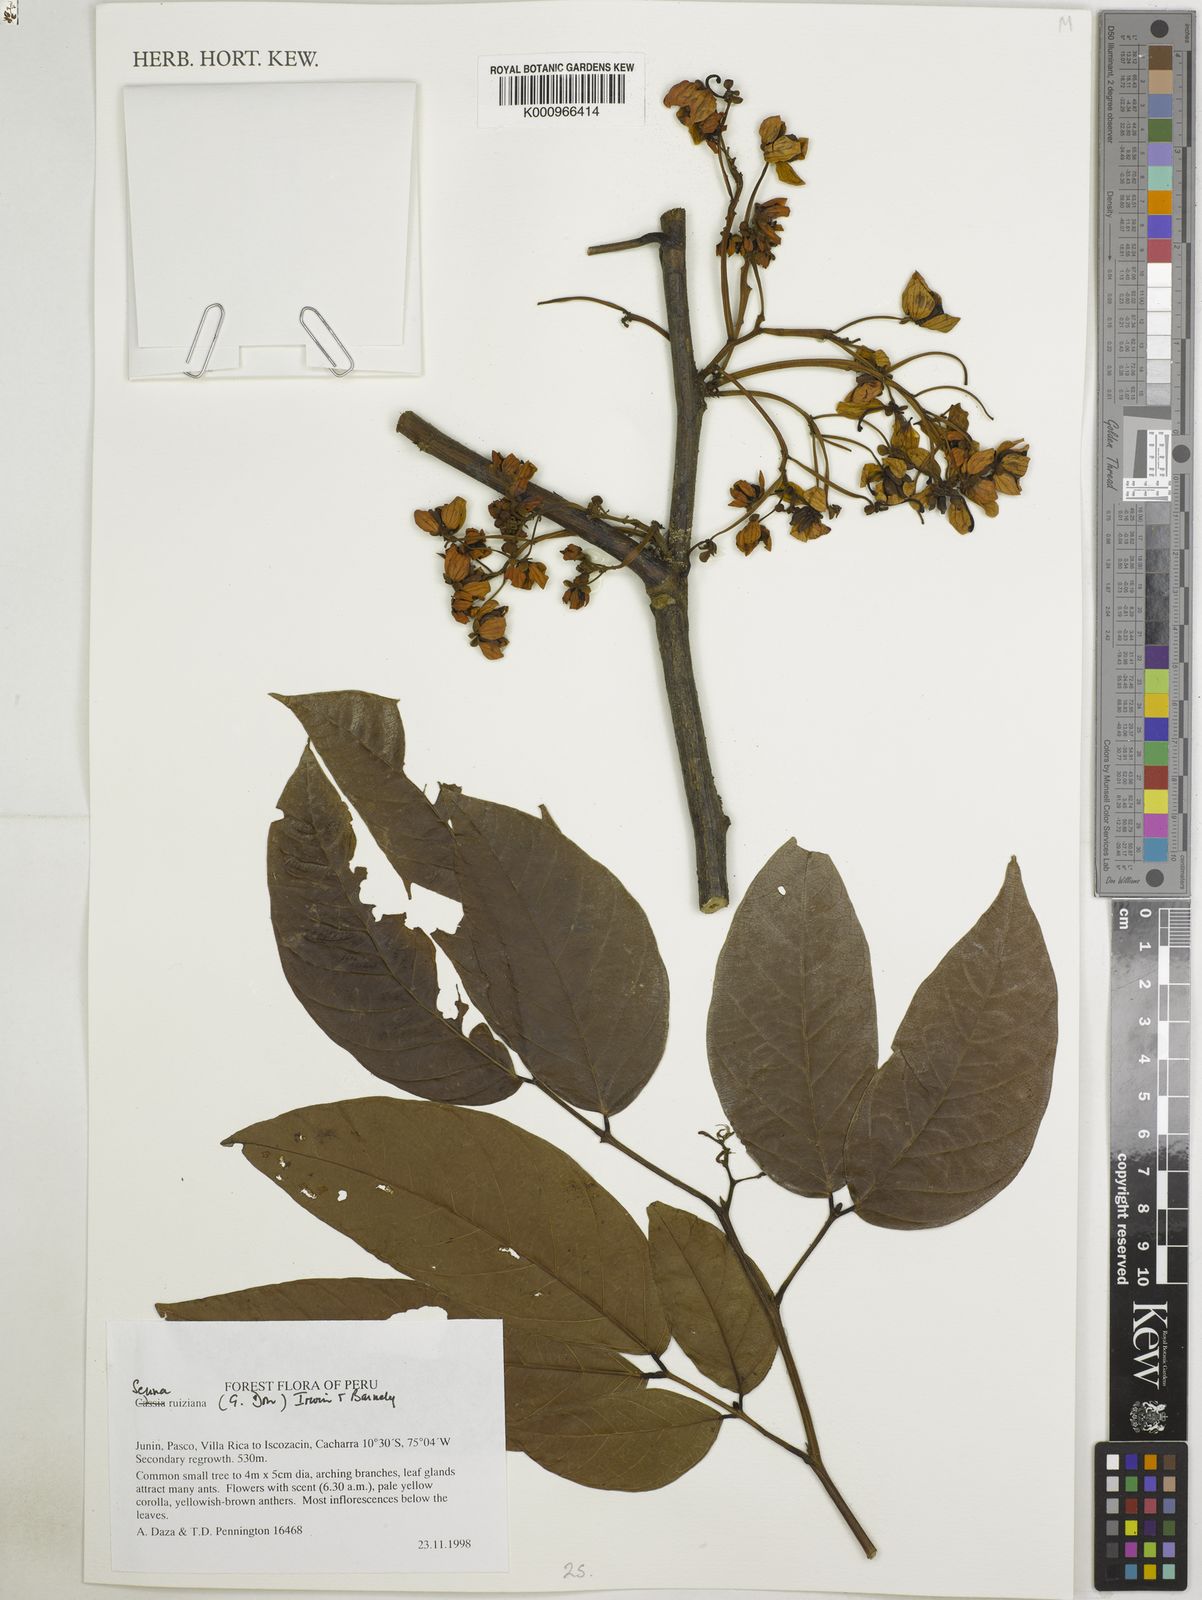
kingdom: Plantae
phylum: Tracheophyta
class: Magnoliopsida
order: Fabales
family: Fabaceae
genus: Senna
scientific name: Senna ruiziana
